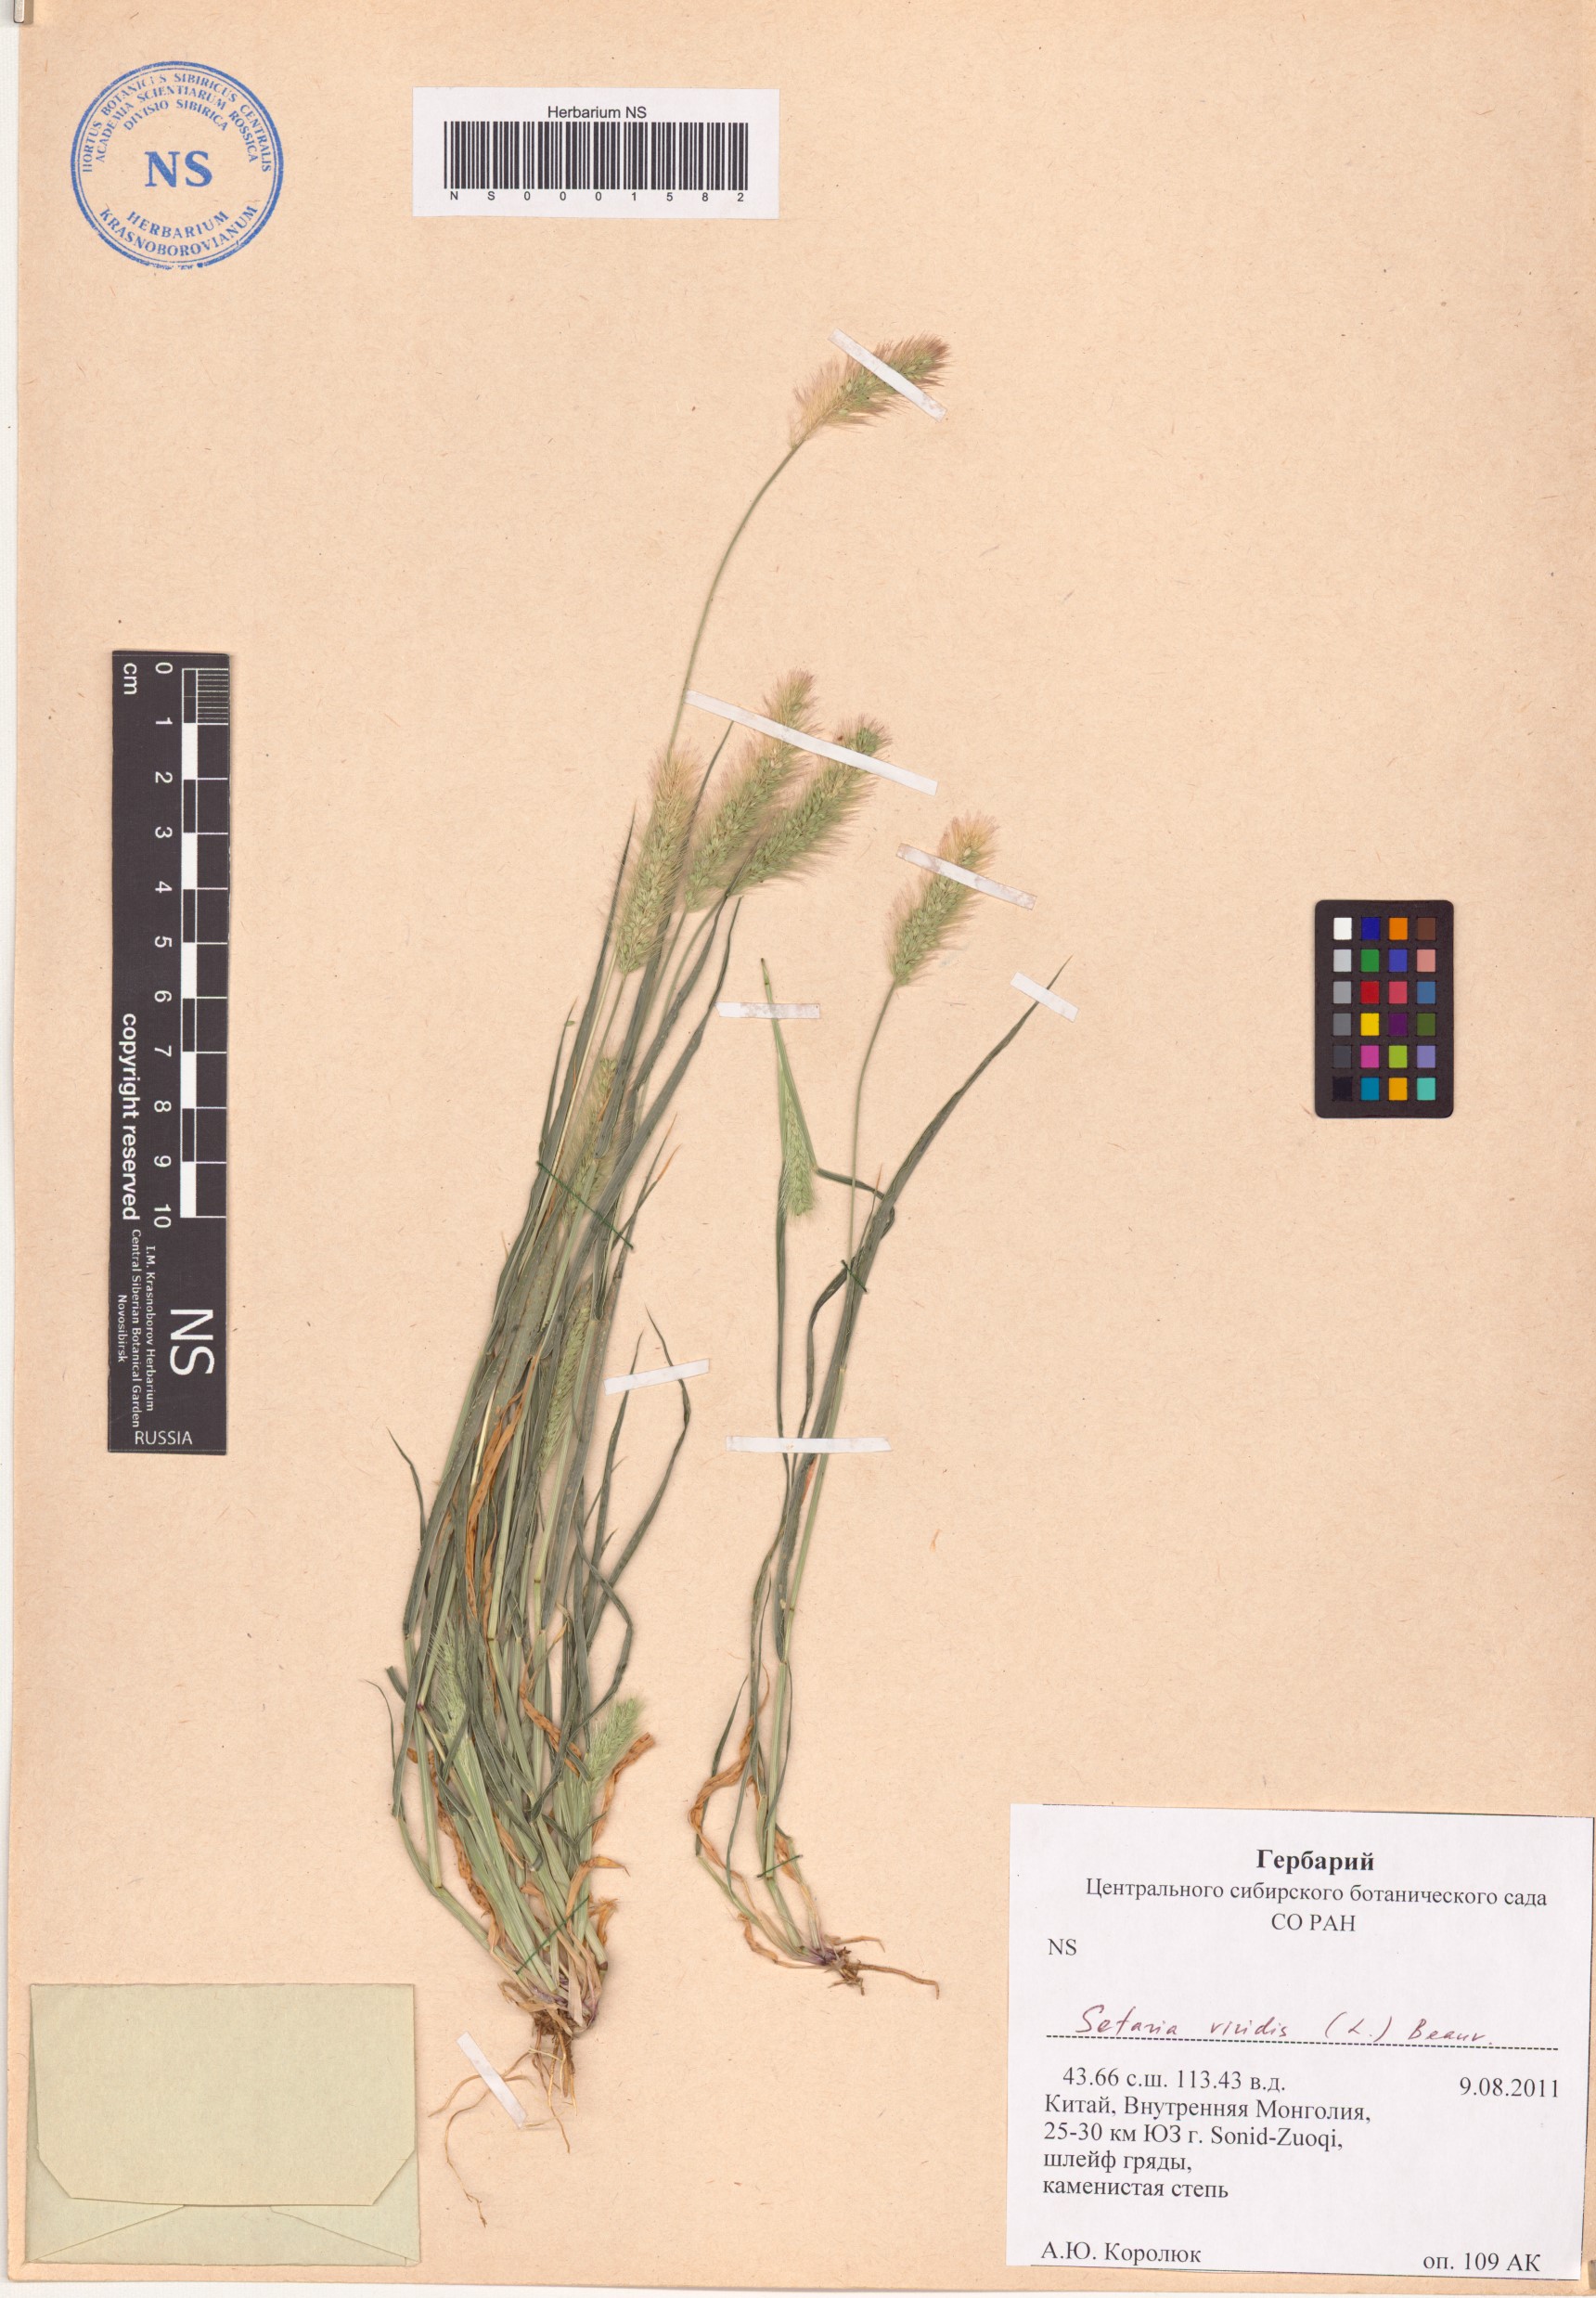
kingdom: Plantae
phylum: Tracheophyta
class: Liliopsida
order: Poales
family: Poaceae
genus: Setaria
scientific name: Setaria viridis
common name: Green bristlegrass
